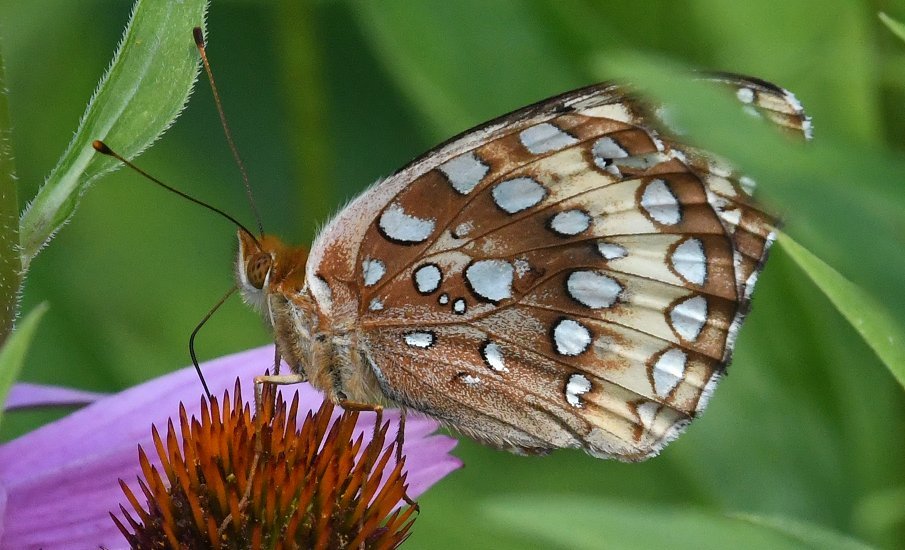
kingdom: Animalia
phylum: Arthropoda
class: Insecta
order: Lepidoptera
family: Nymphalidae
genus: Speyeria
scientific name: Speyeria cybele
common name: Great Spangled Fritillary
